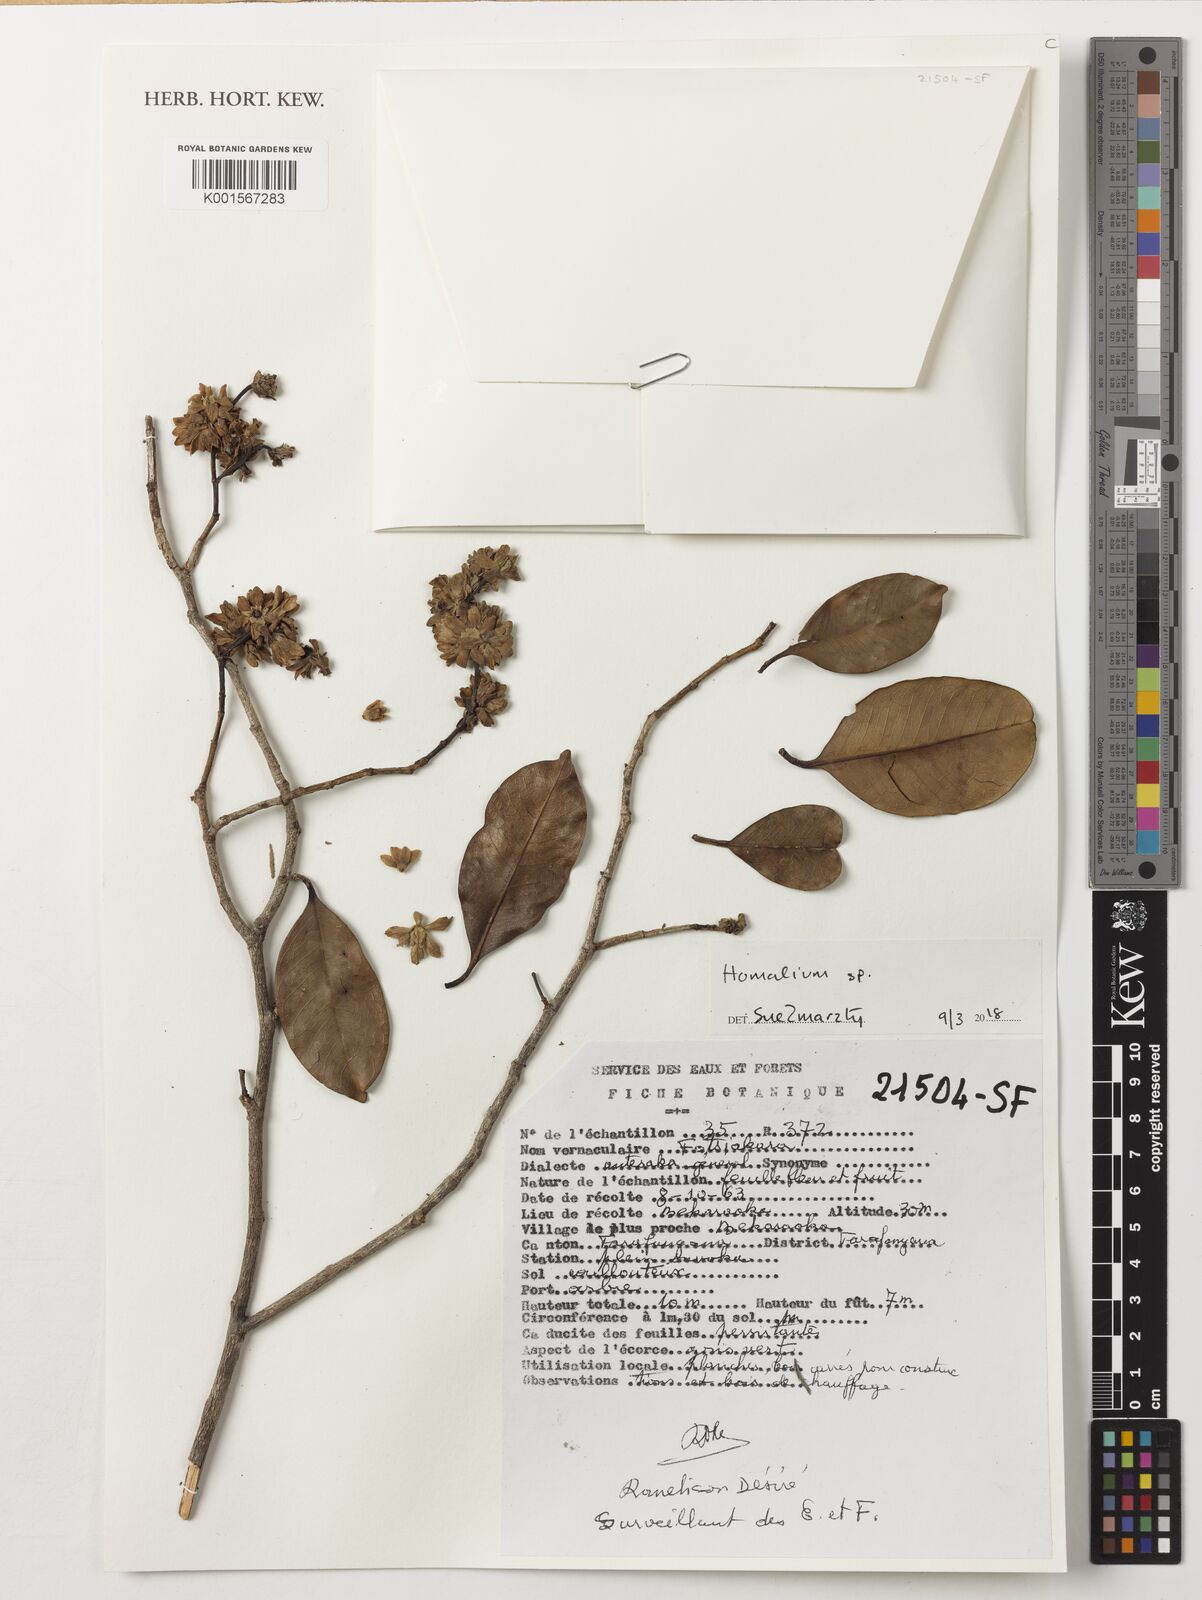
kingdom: Plantae
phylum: Tracheophyta
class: Magnoliopsida
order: Malpighiales
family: Salicaceae
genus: Homalium
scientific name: Homalium
